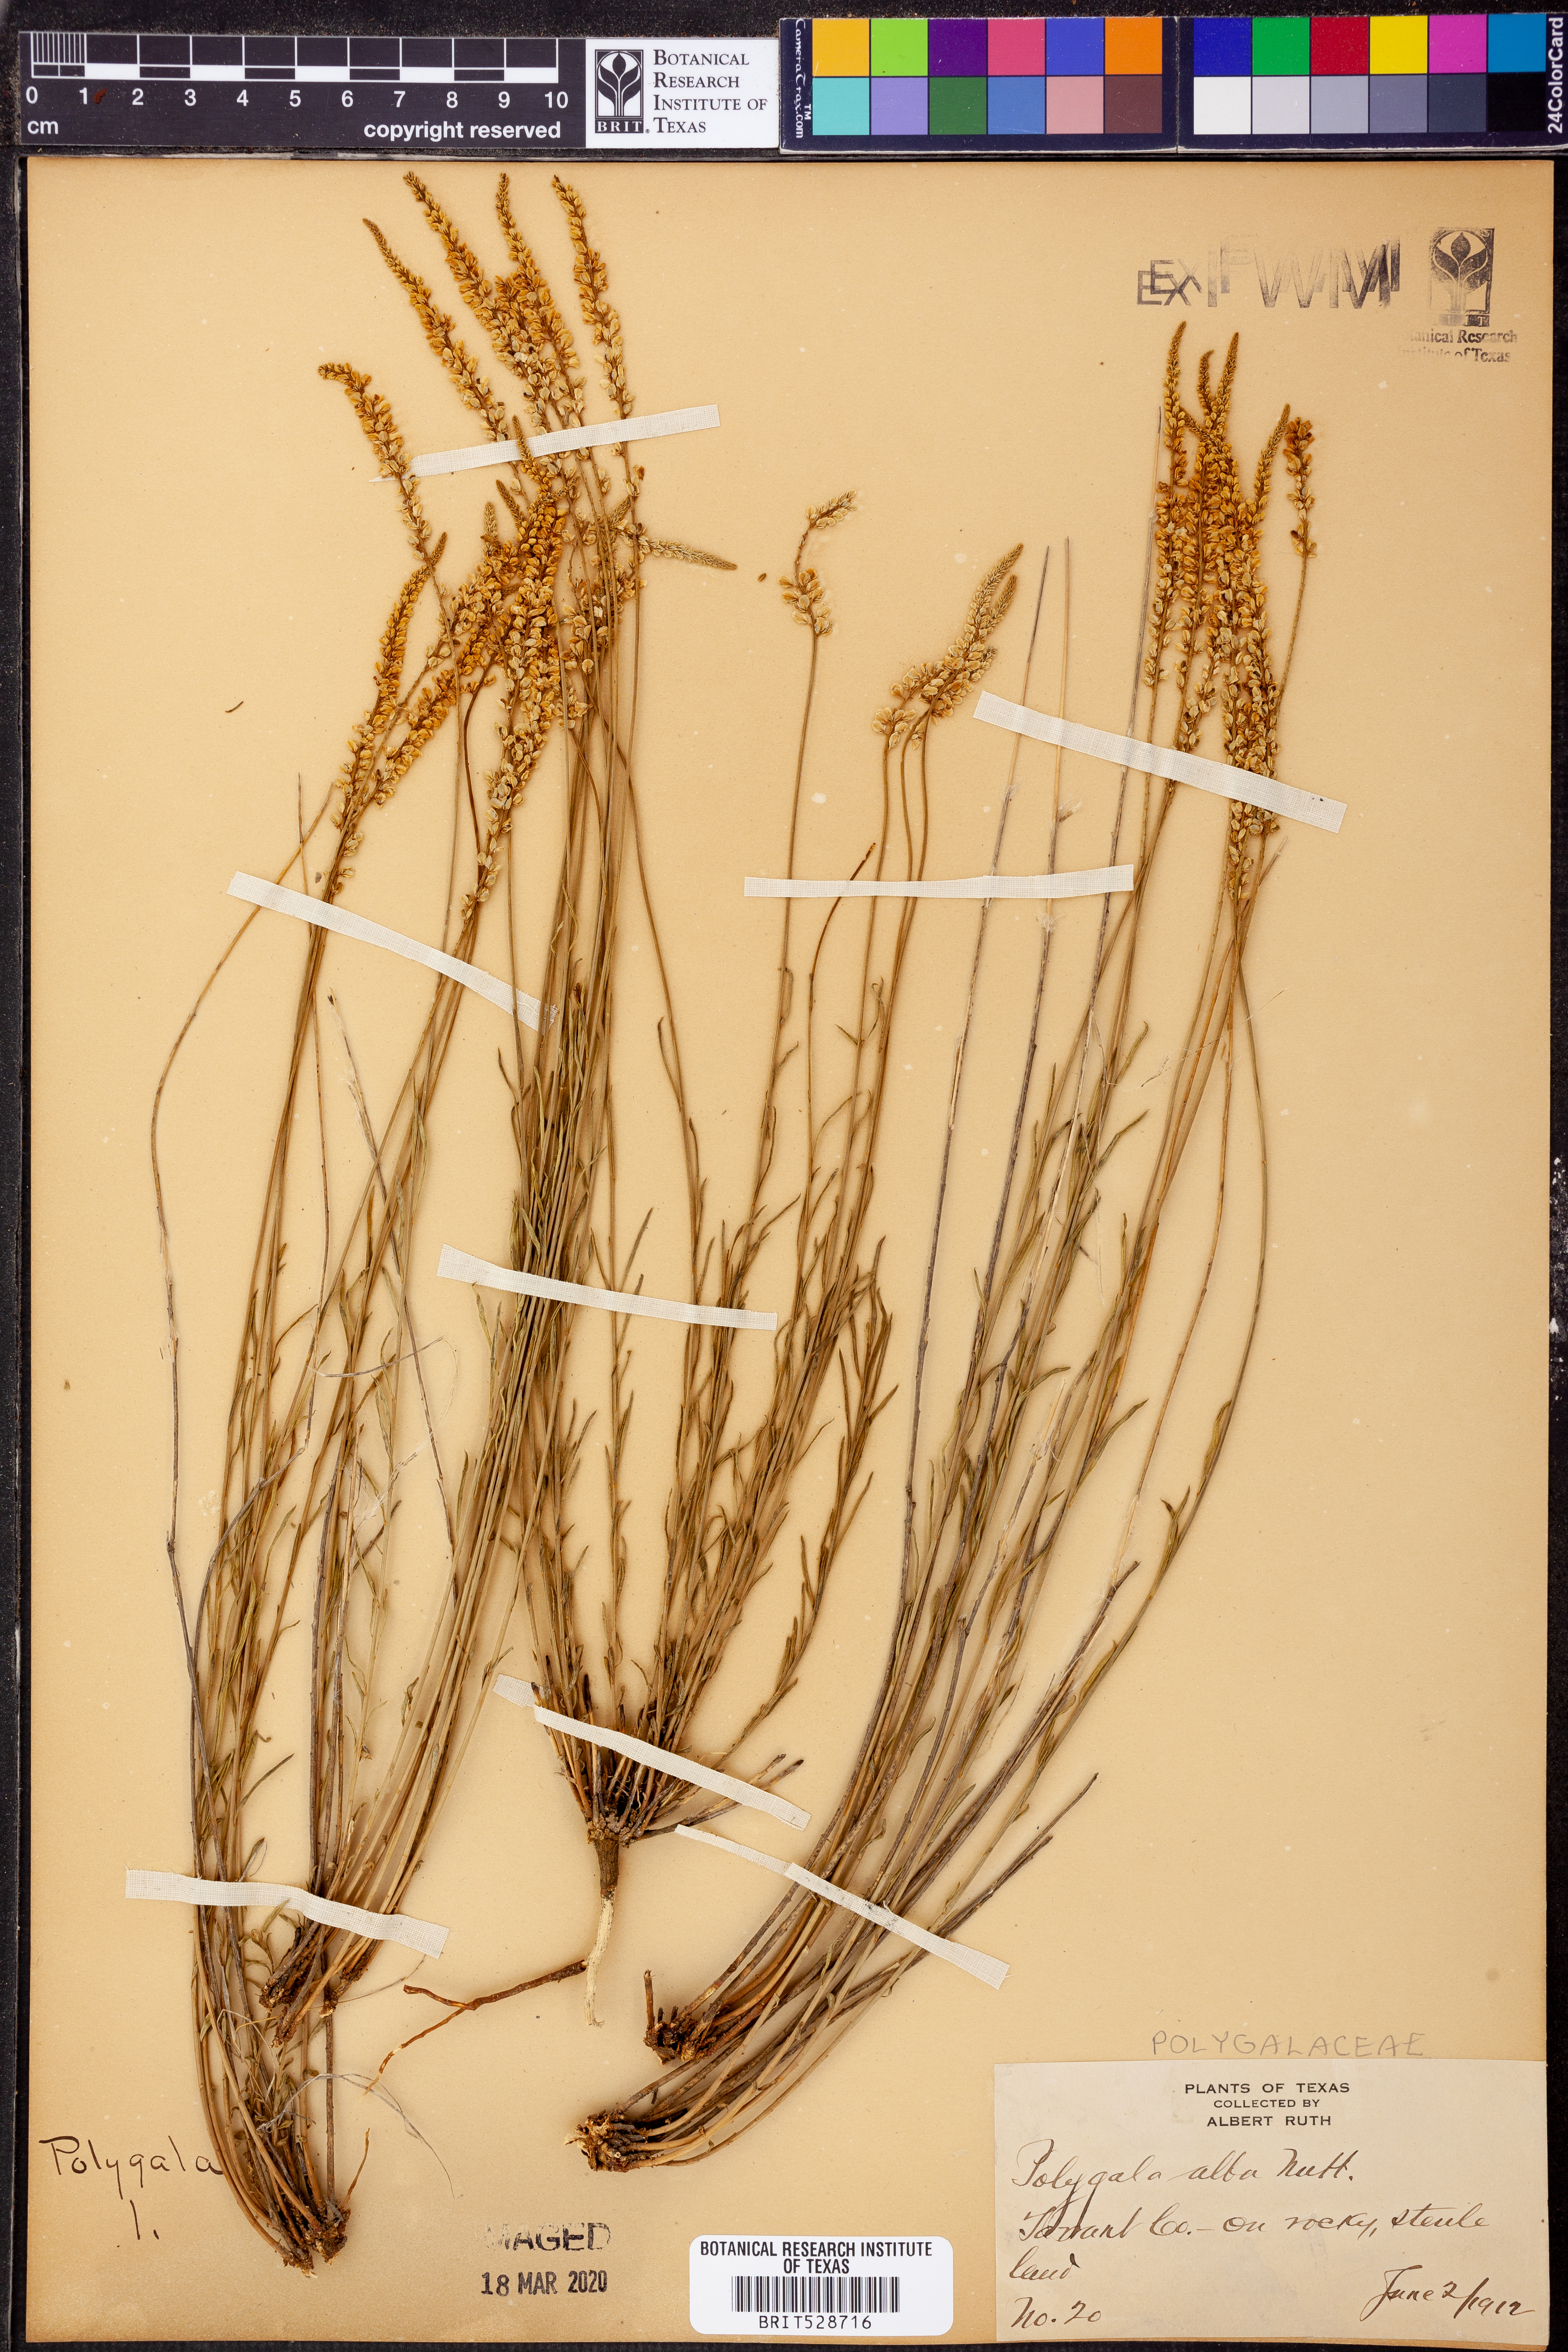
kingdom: Plantae
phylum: Tracheophyta
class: Magnoliopsida
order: Fabales
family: Polygalaceae
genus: Polygala
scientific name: Polygala alba
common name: White milkwort
